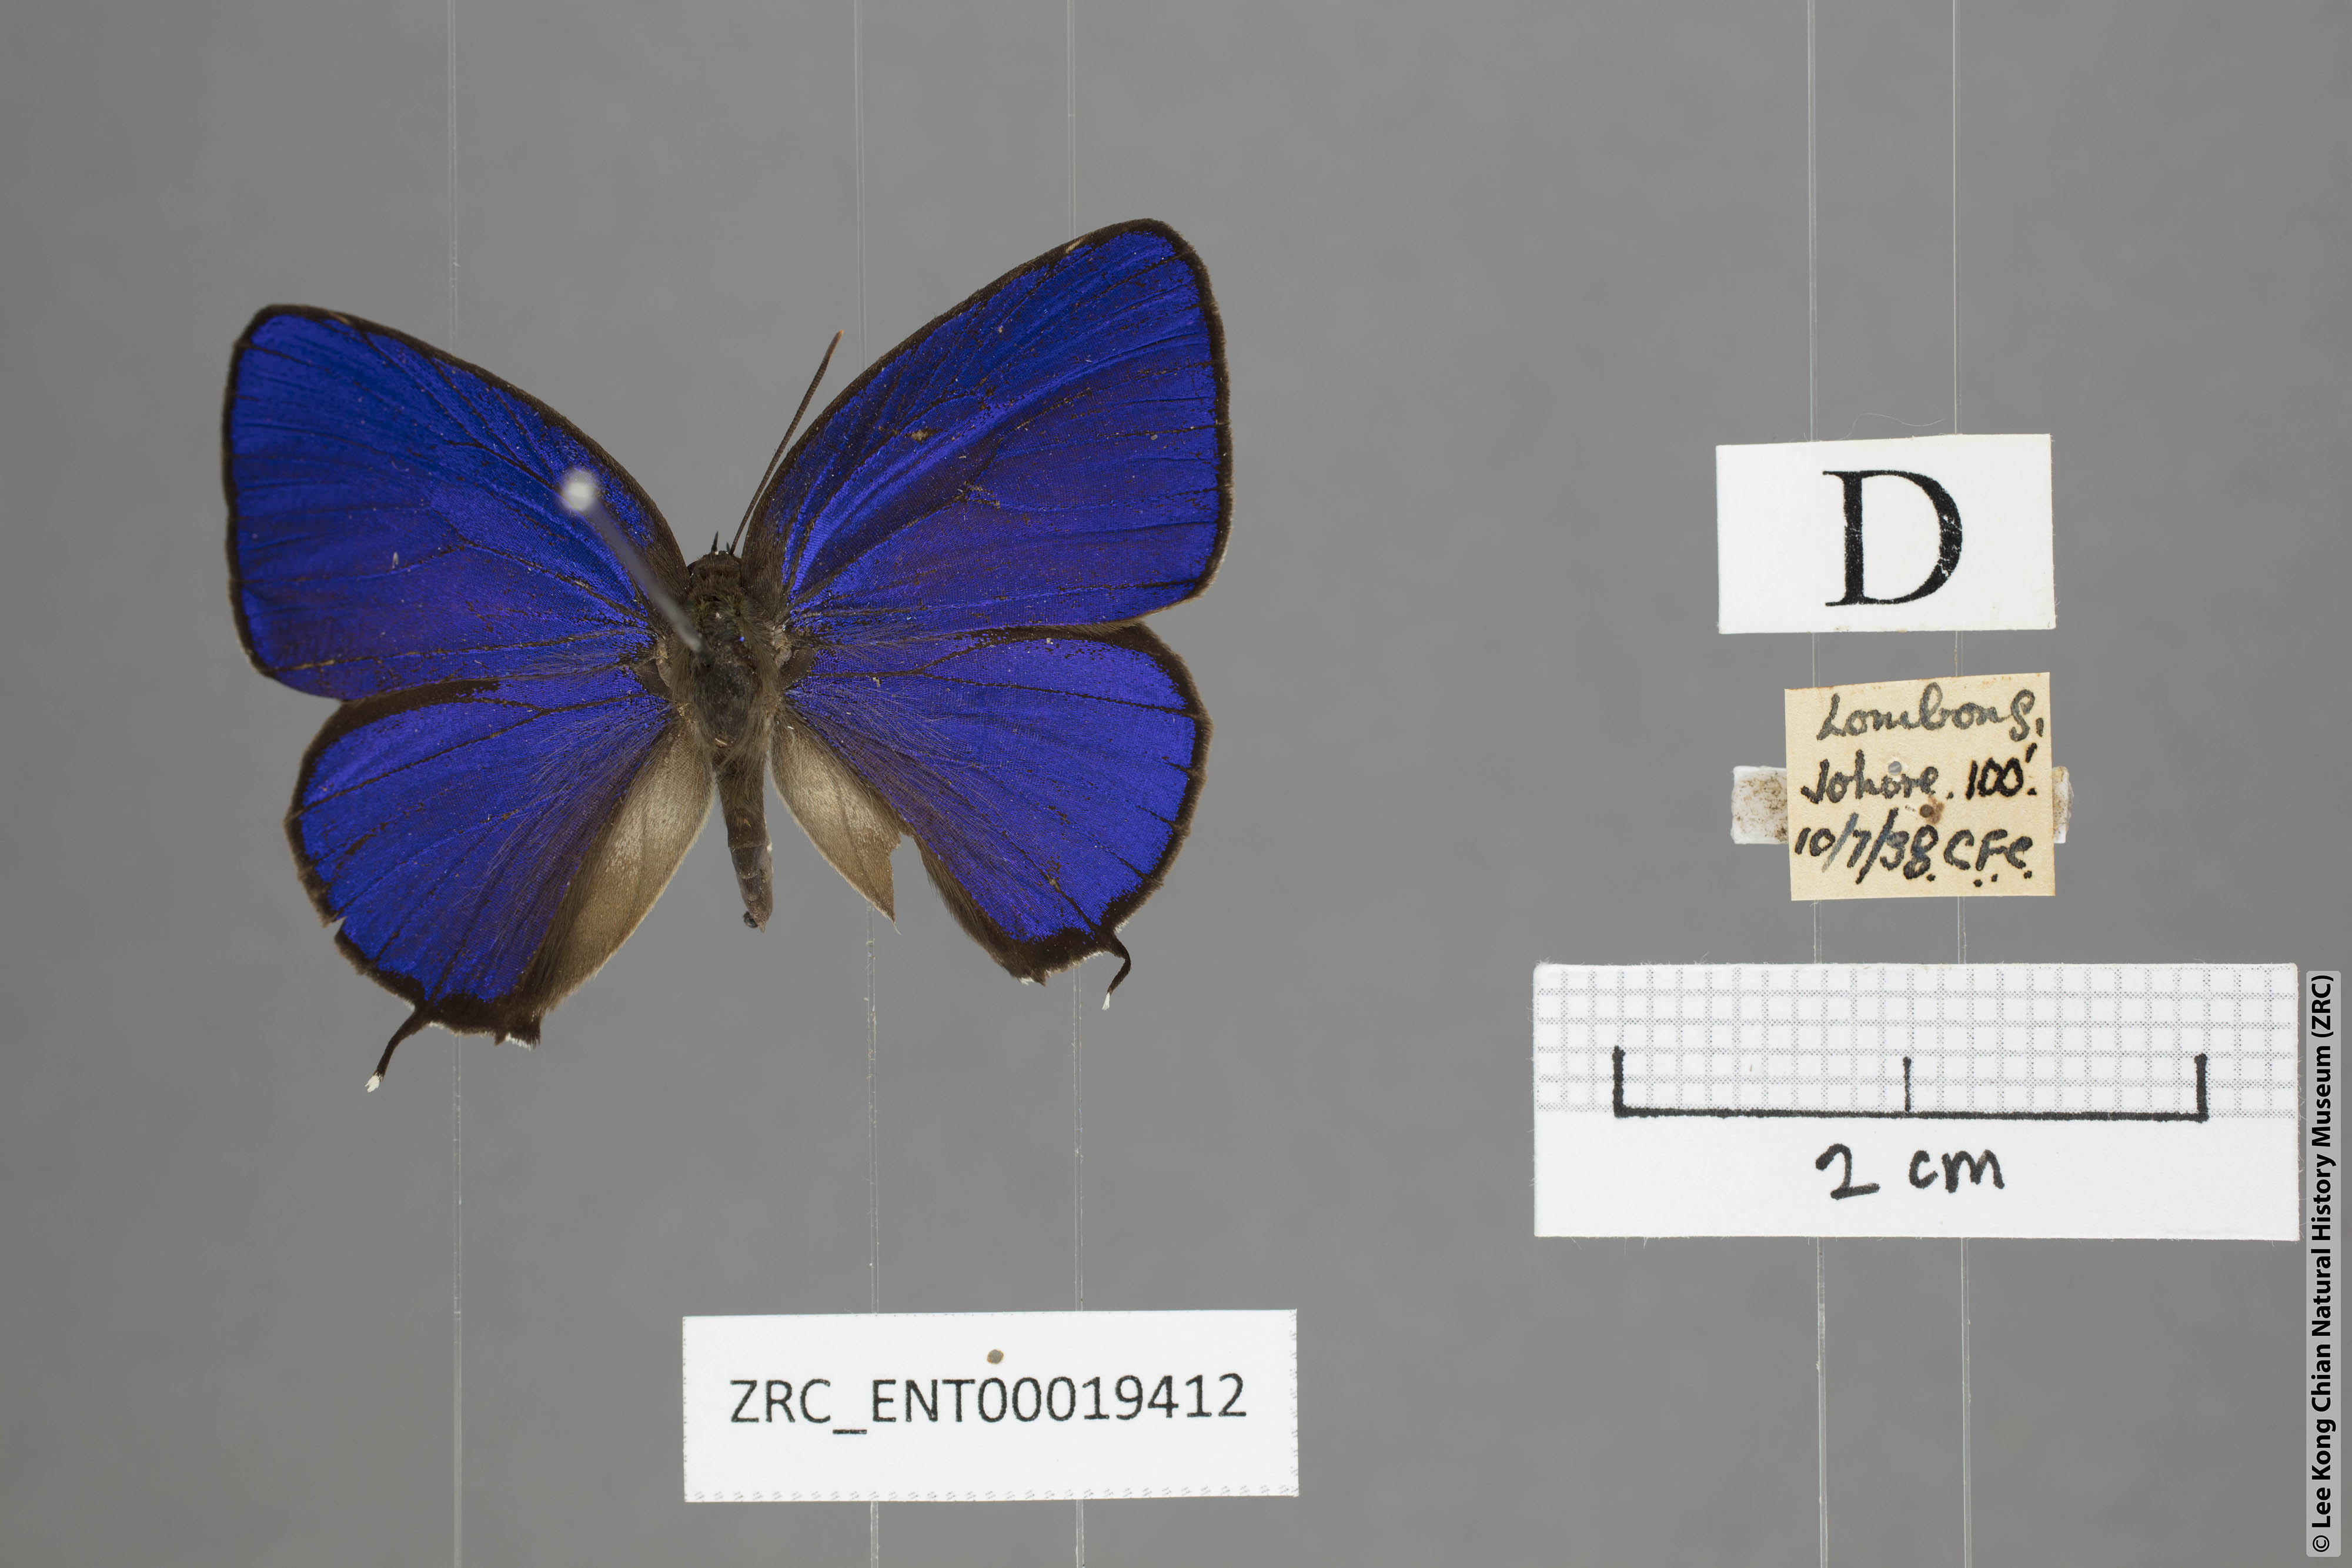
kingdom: Animalia
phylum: Arthropoda
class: Insecta
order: Lepidoptera
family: Lycaenidae
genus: Arhopala
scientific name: Arhopala elopura
